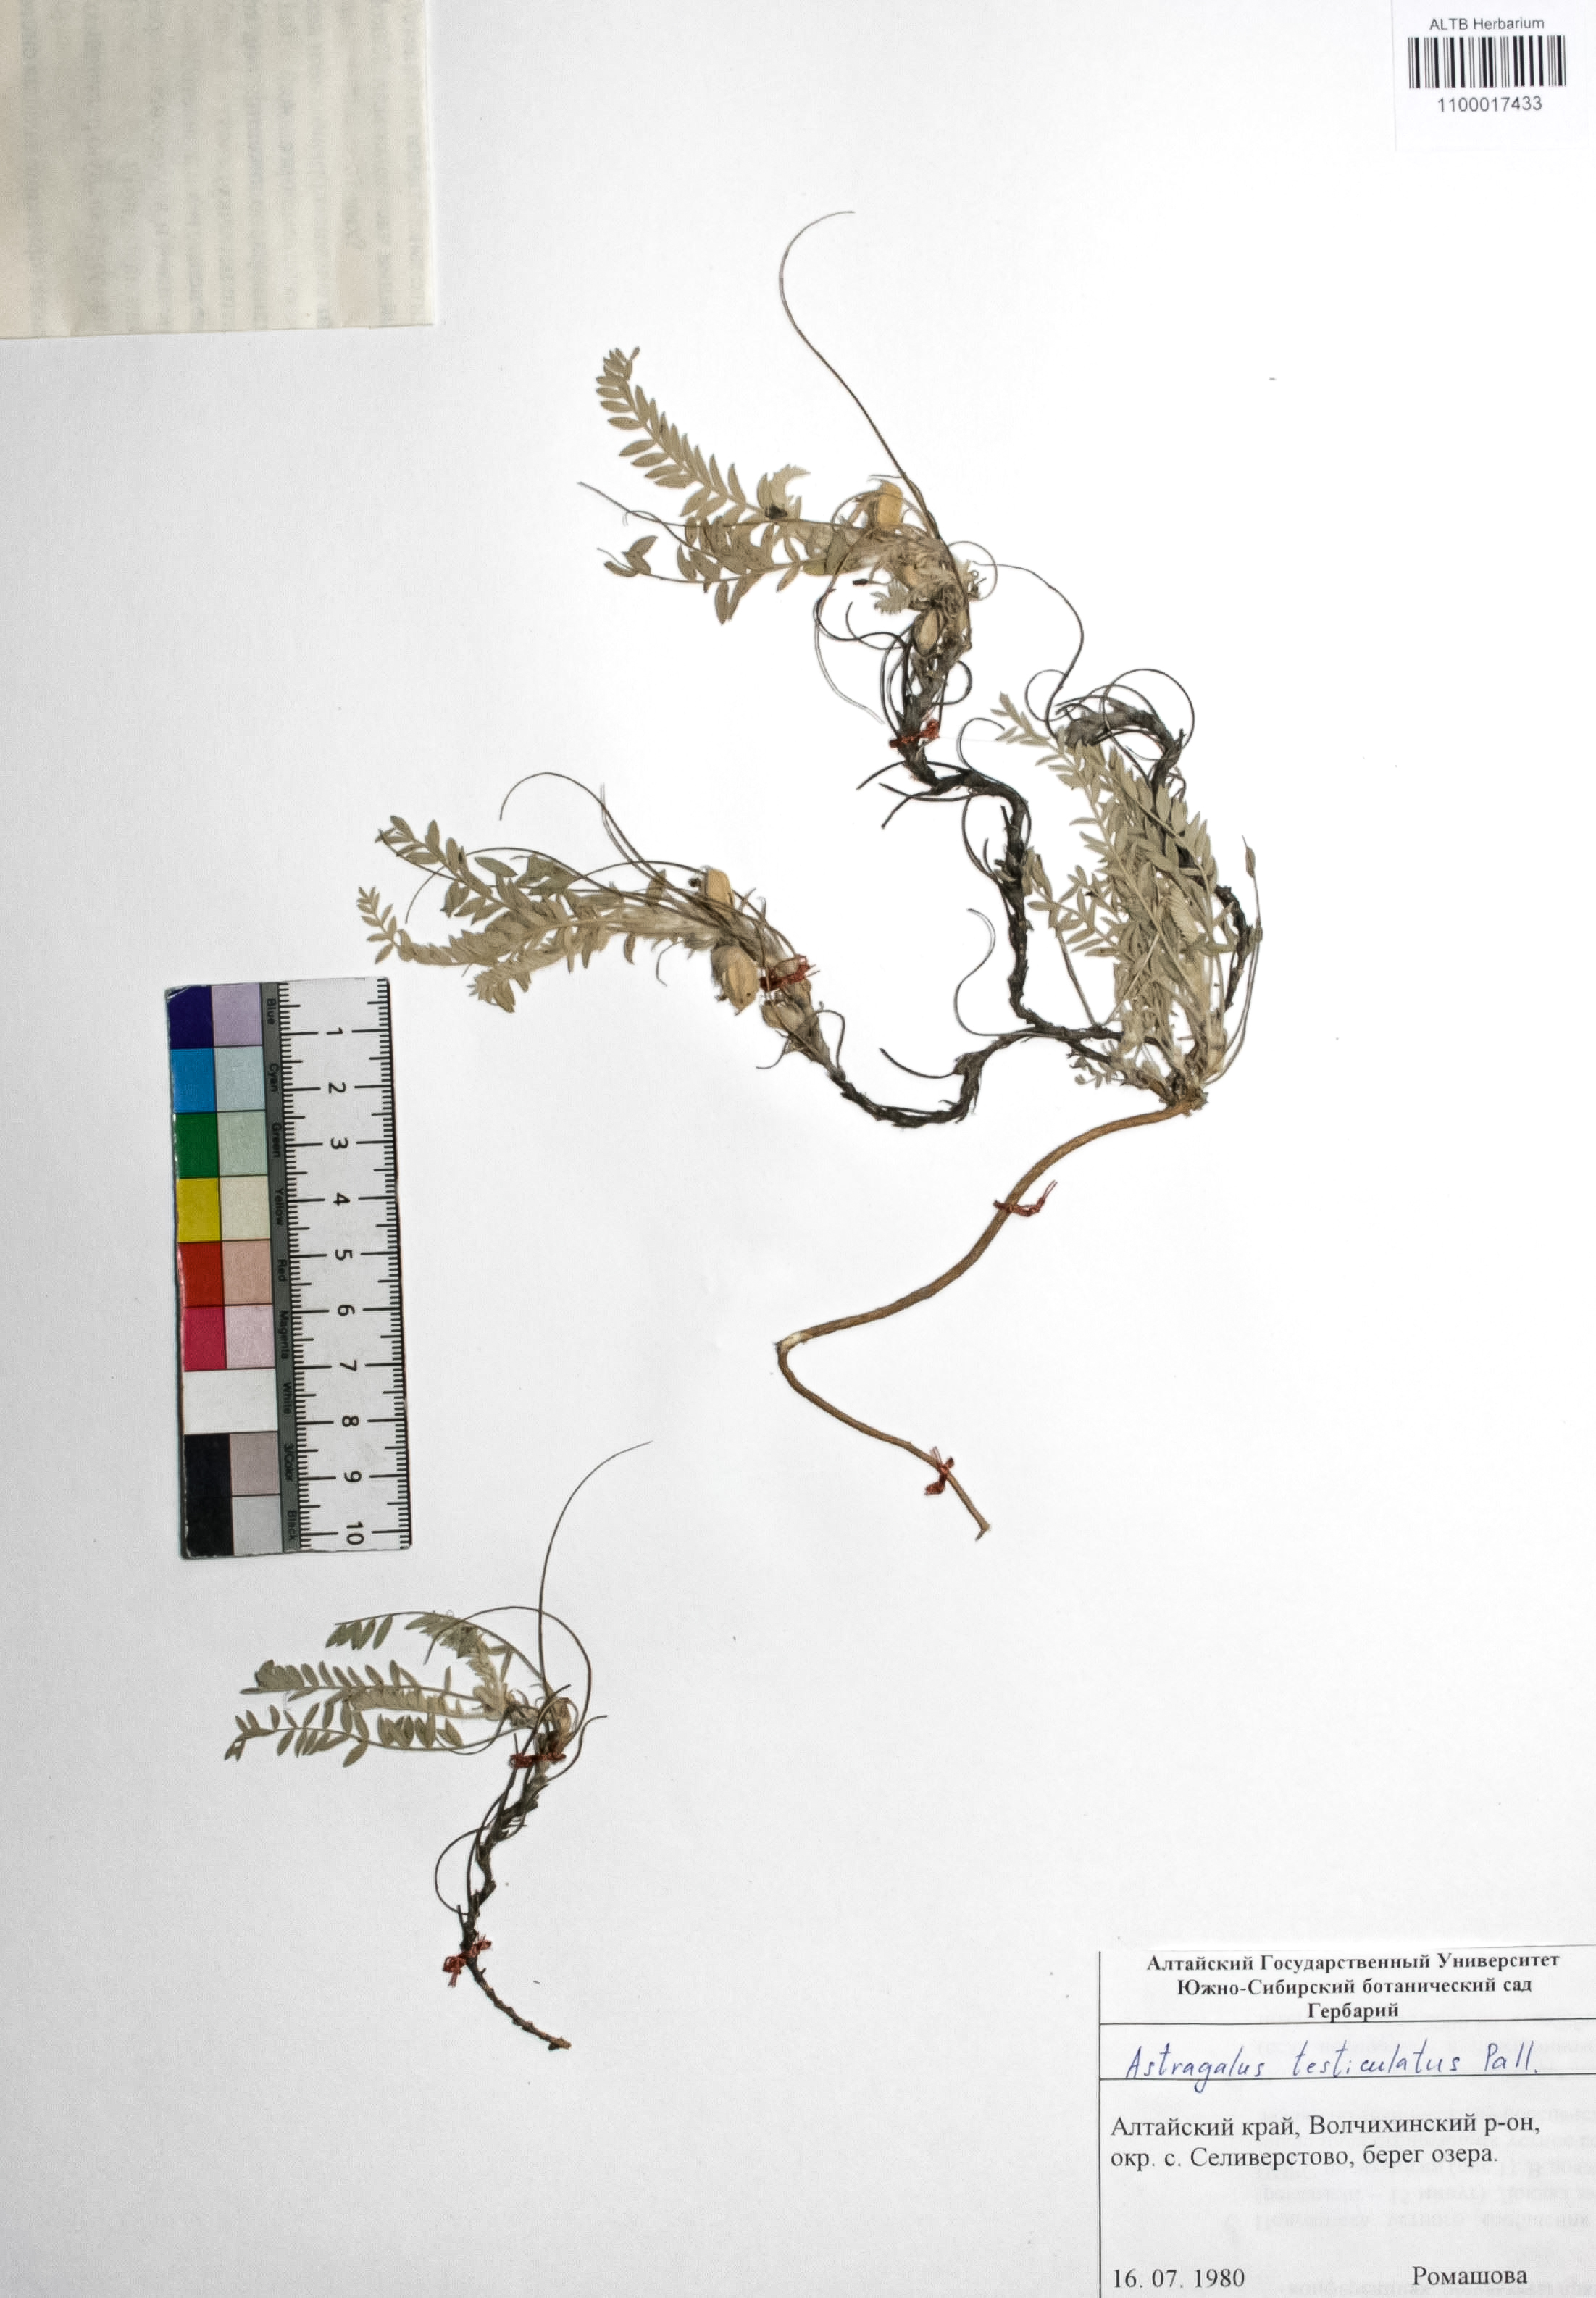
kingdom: Plantae
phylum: Tracheophyta
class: Magnoliopsida
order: Fabales
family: Fabaceae
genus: Astragalus
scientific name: Astragalus testiculatus
